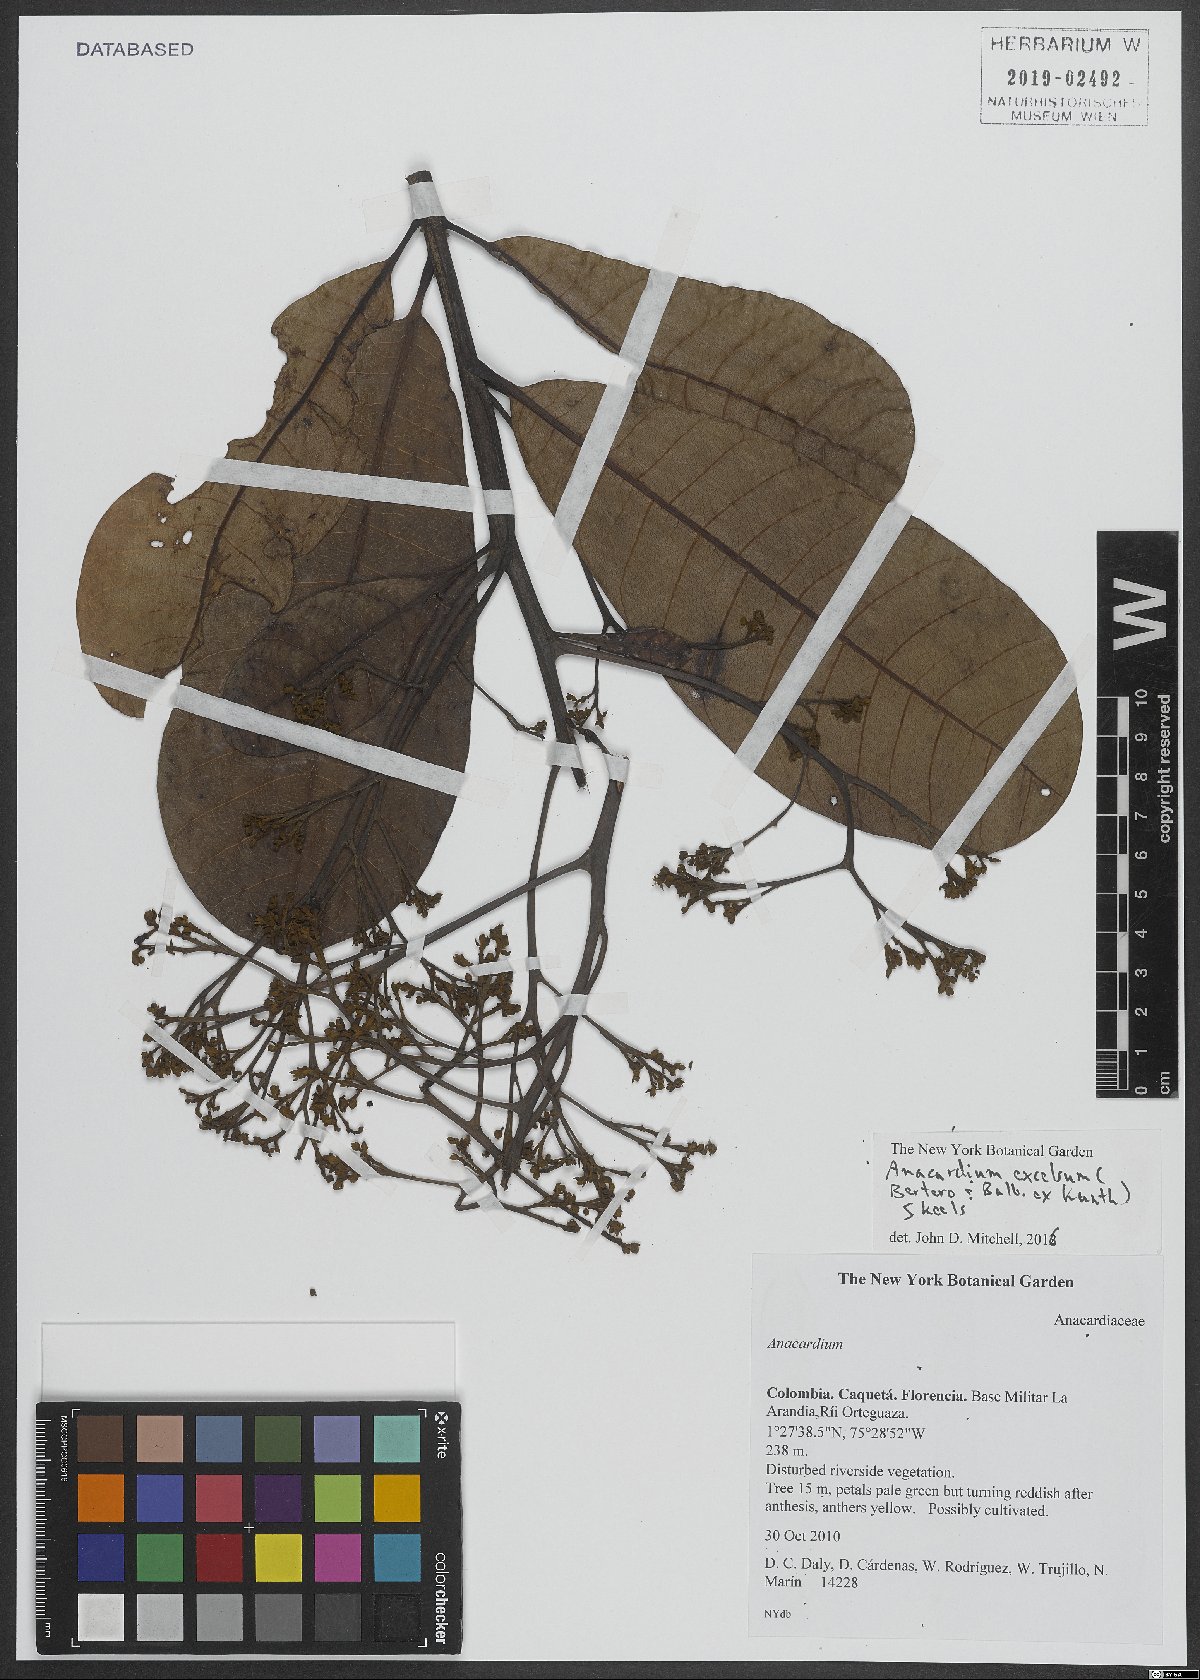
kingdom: Plantae
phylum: Tracheophyta
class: Magnoliopsida
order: Sapindales
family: Anacardiaceae
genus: Anacardium
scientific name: Anacardium excelsum
